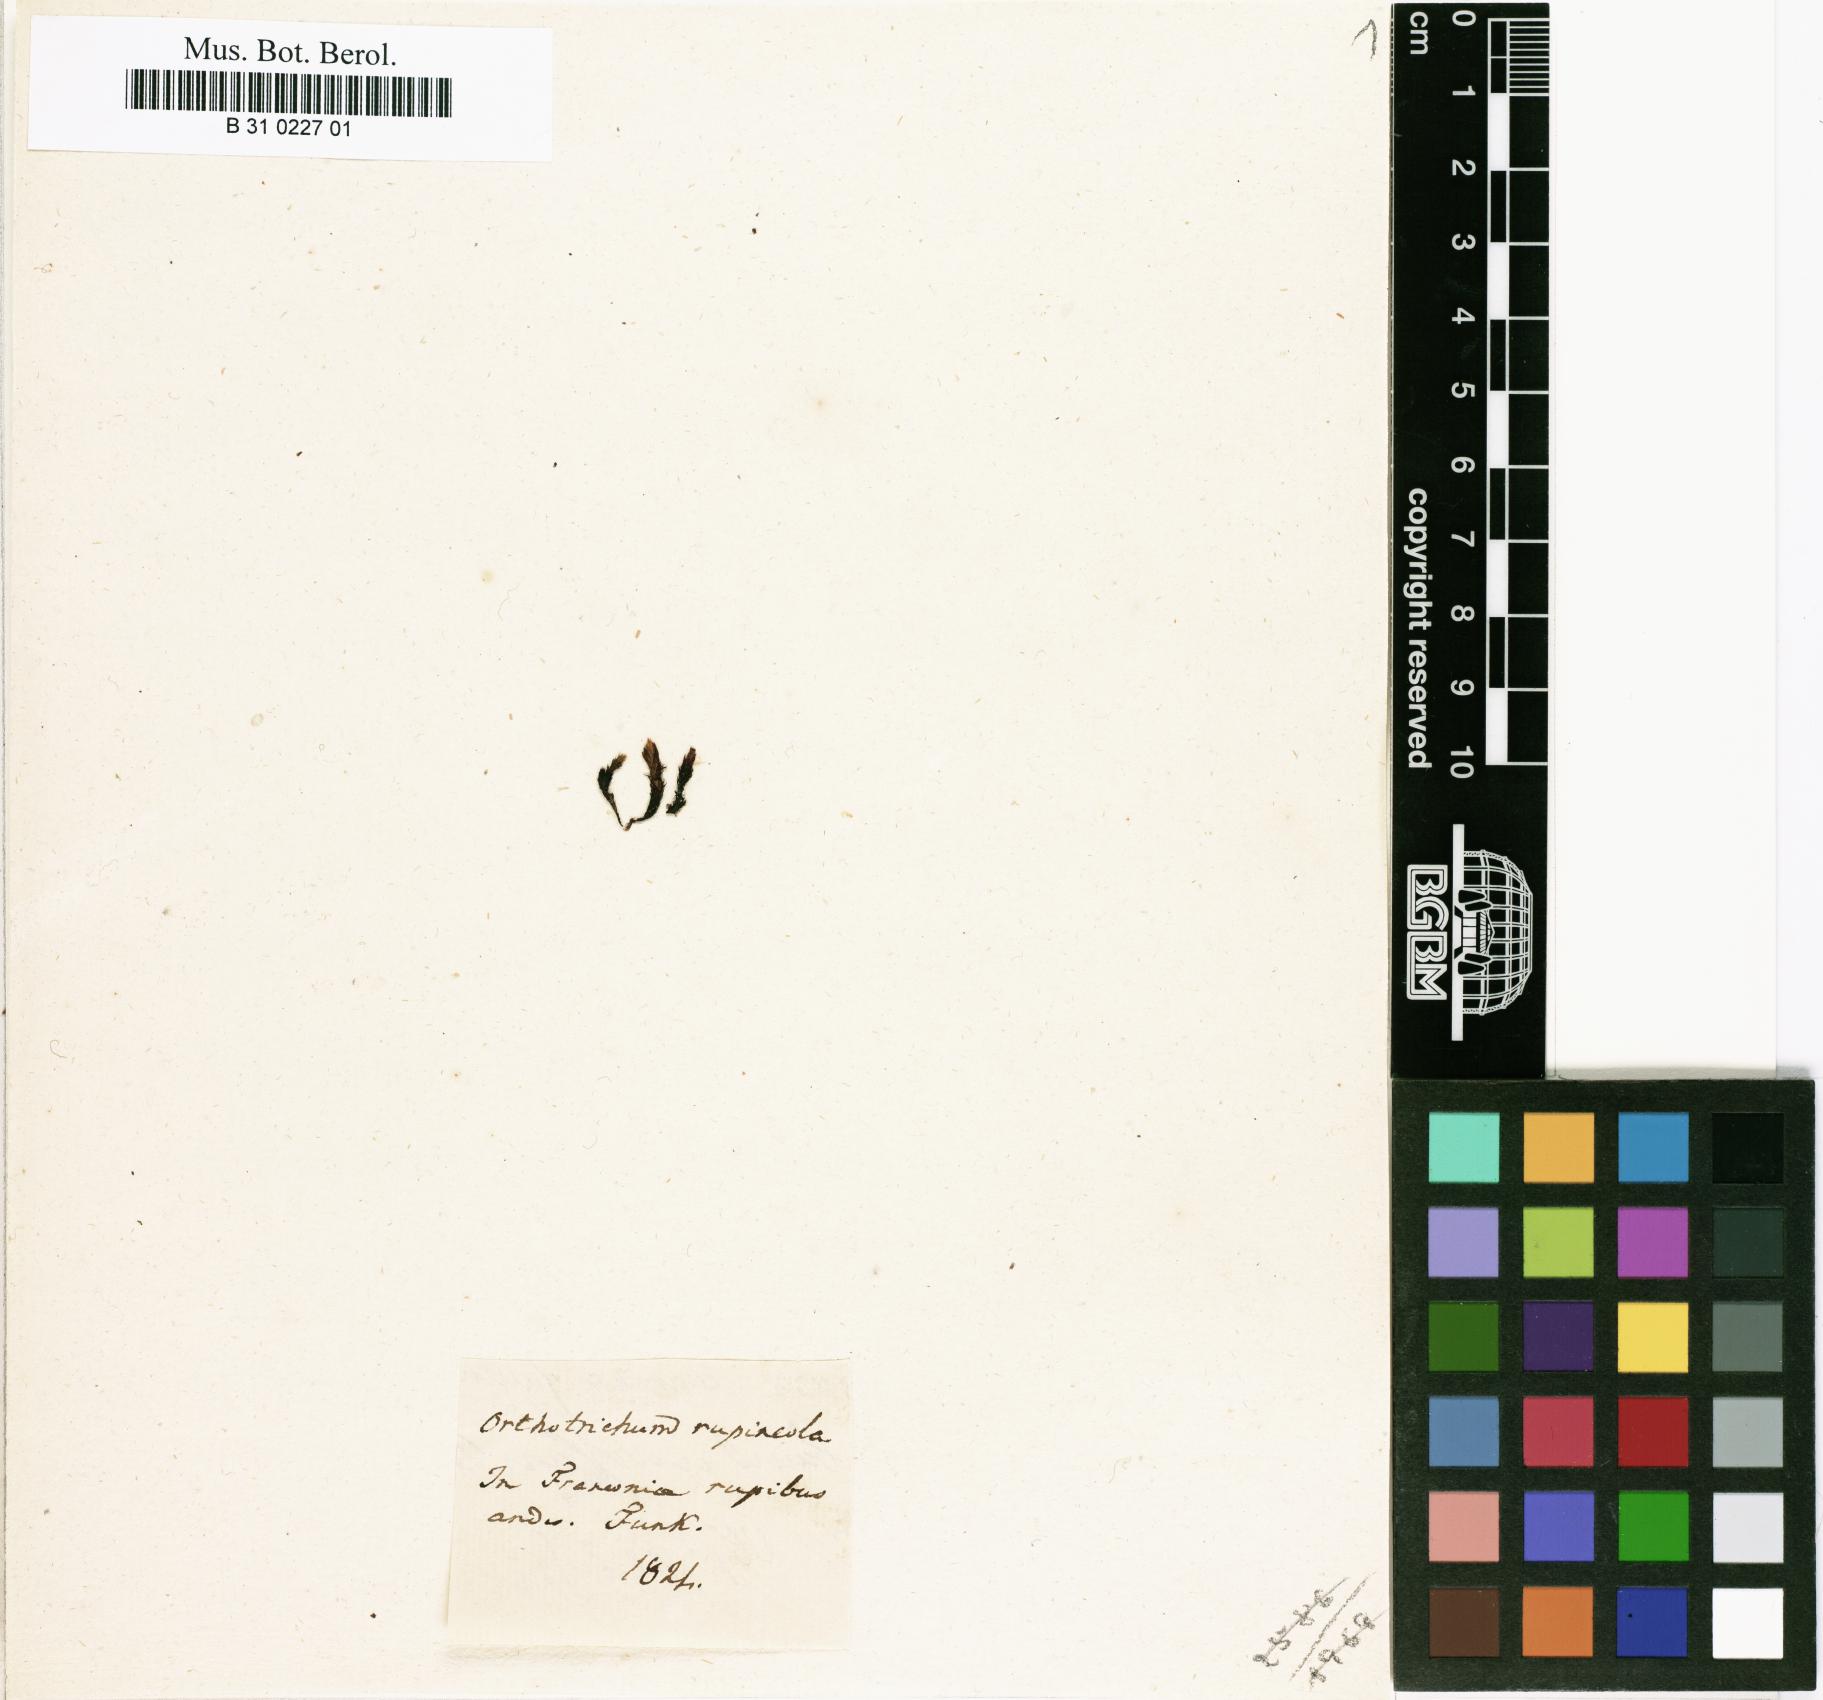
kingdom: Plantae
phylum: Bryophyta
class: Bryopsida
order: Orthotrichales
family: Orthotrichaceae
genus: Lewinskya
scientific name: Lewinskya rupestris
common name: Rock bristle-moss
